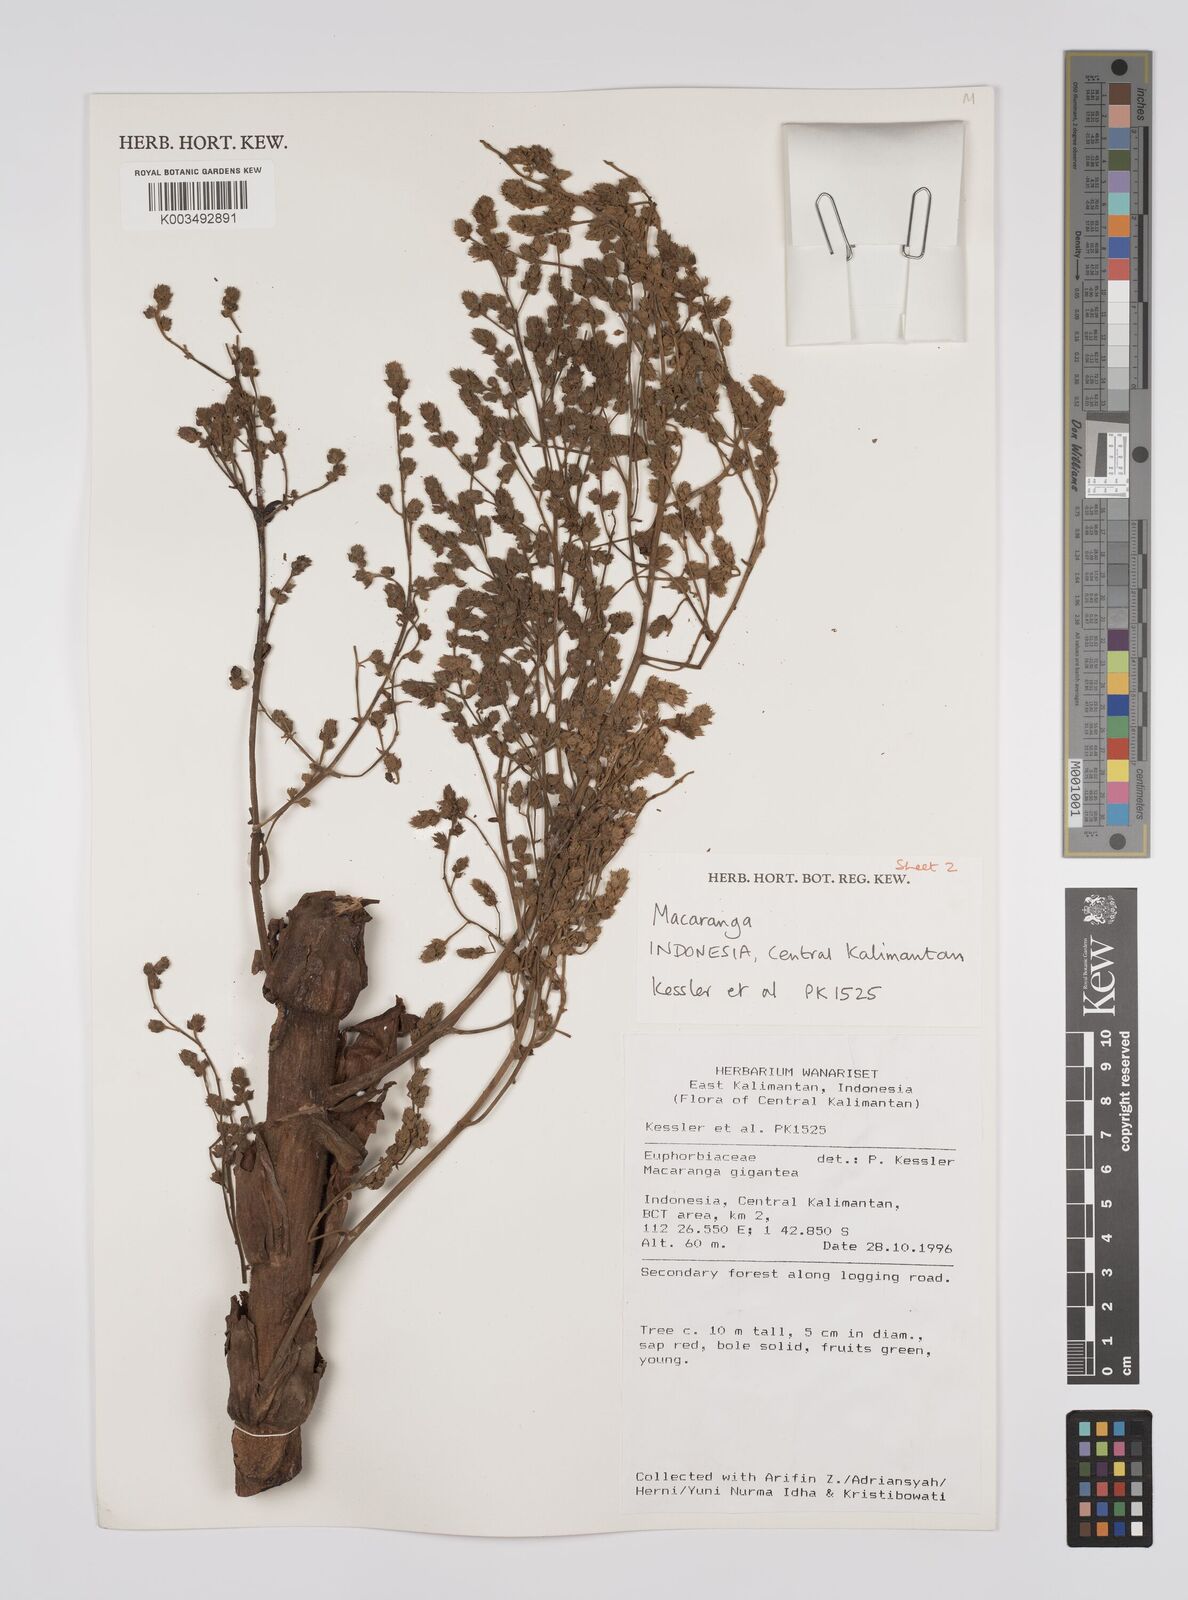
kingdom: Plantae
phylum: Tracheophyta
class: Magnoliopsida
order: Malpighiales
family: Euphorbiaceae
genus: Macaranga
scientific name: Macaranga gigantea
